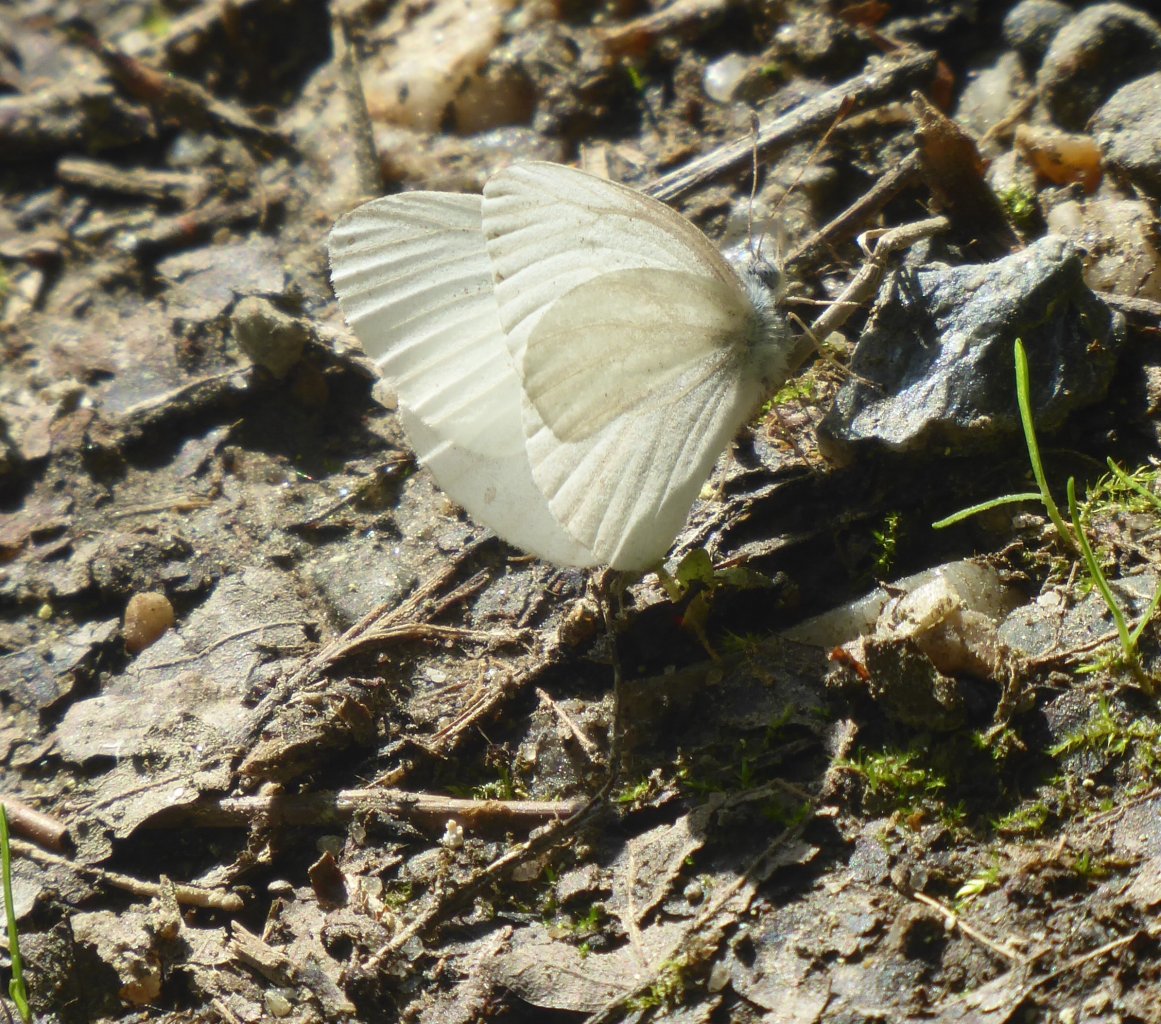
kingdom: Animalia
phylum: Arthropoda
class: Insecta
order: Lepidoptera
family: Pieridae
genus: Pieris
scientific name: Pieris virginiensis
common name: West Virginia White
